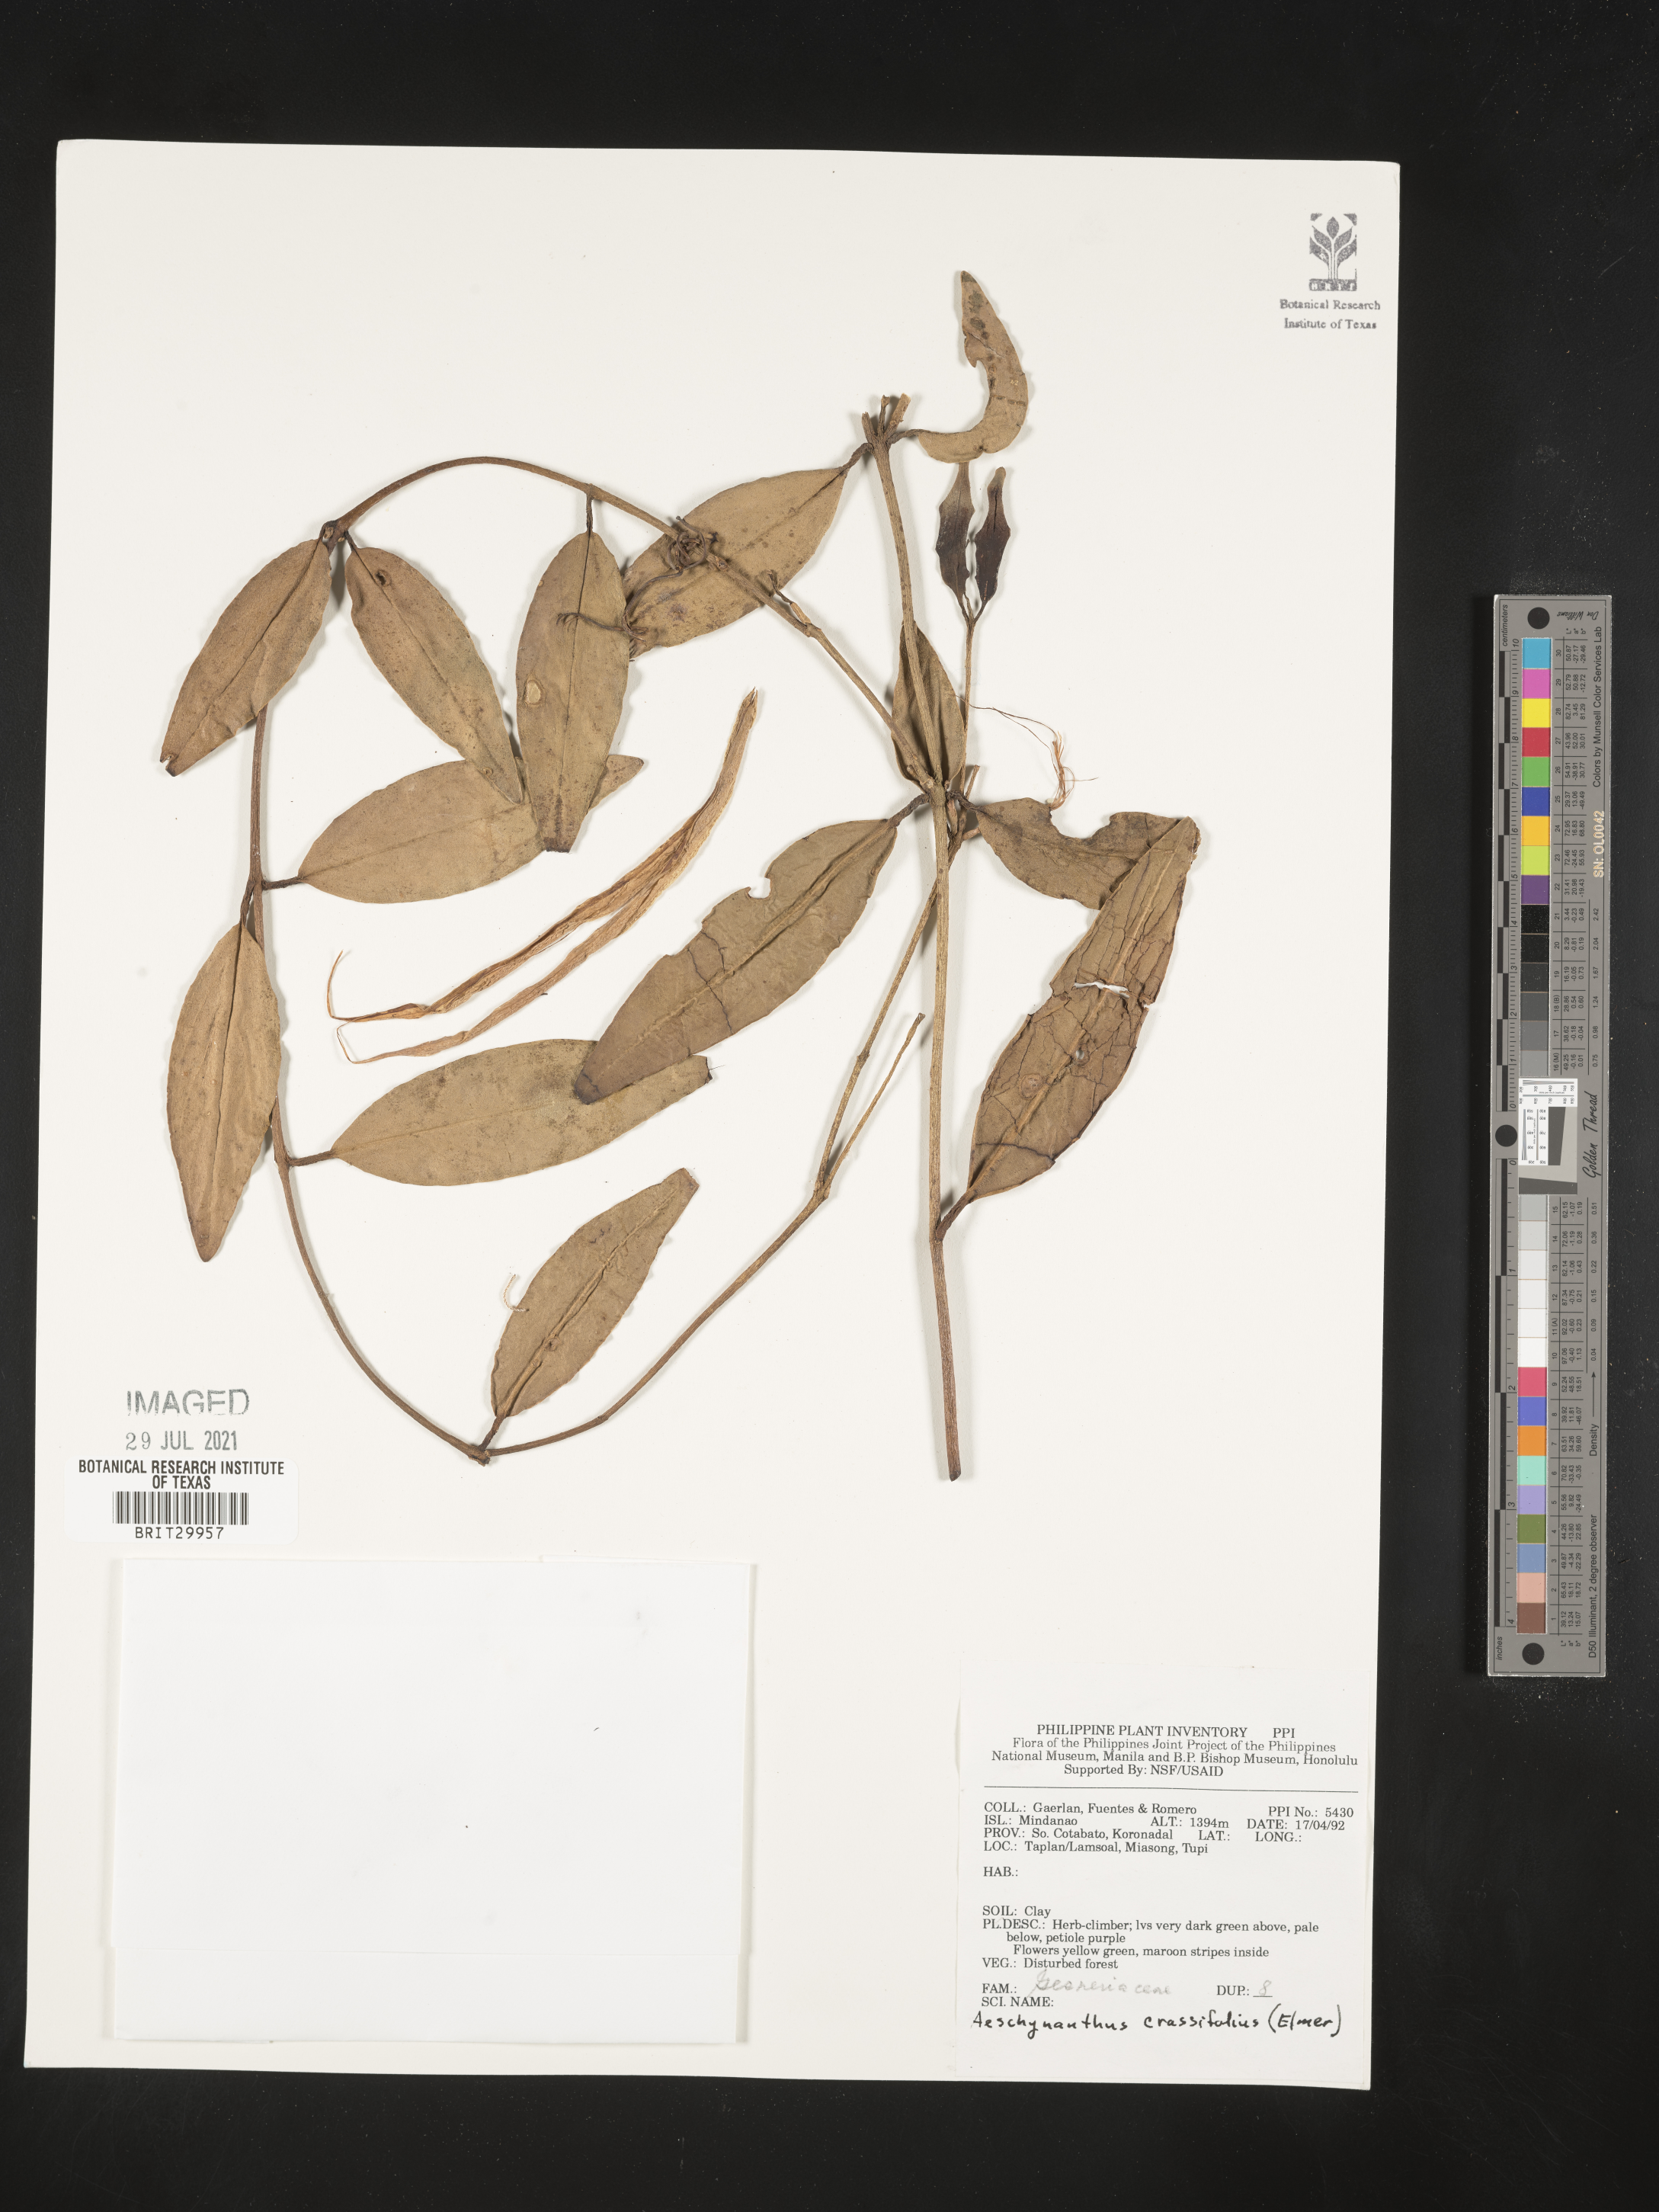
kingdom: Plantae
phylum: Tracheophyta
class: Magnoliopsida
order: Lamiales
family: Gesneriaceae
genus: Aeschynanthus
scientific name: Aeschynanthus crassifolius
